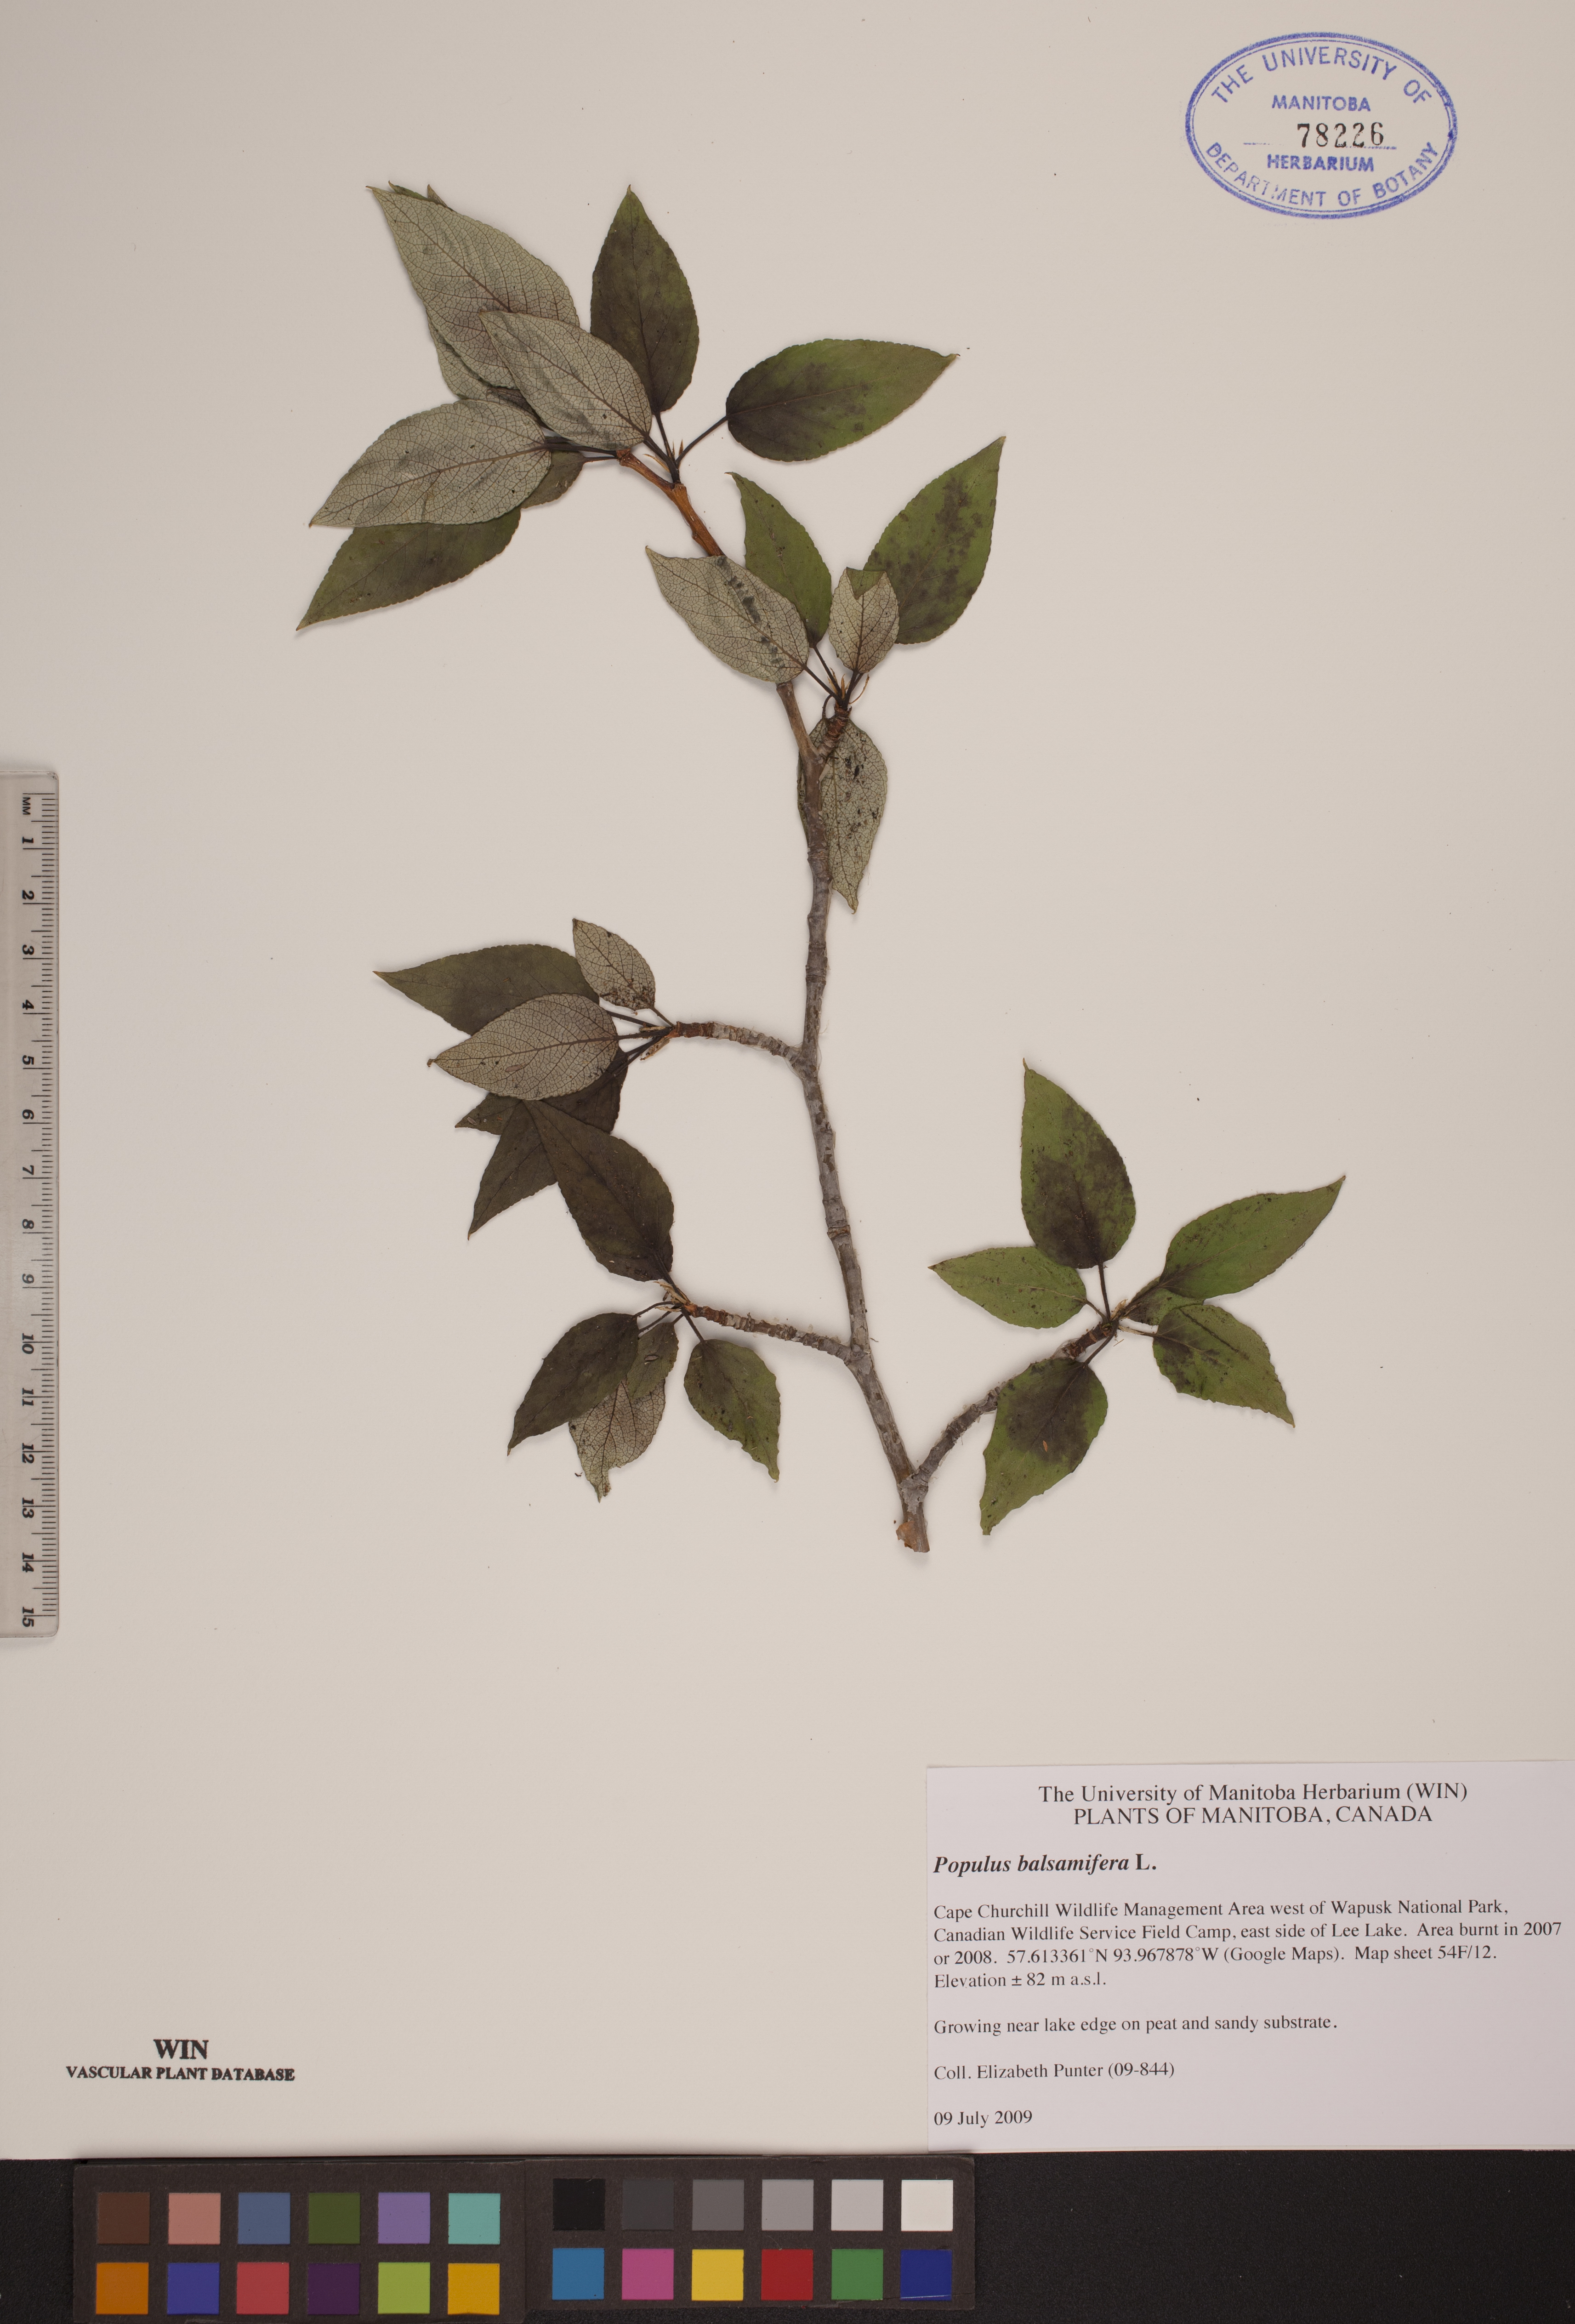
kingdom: Plantae
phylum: Tracheophyta
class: Magnoliopsida
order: Malpighiales
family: Salicaceae
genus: Populus
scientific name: Populus balsamifera
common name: Balsam poplar
